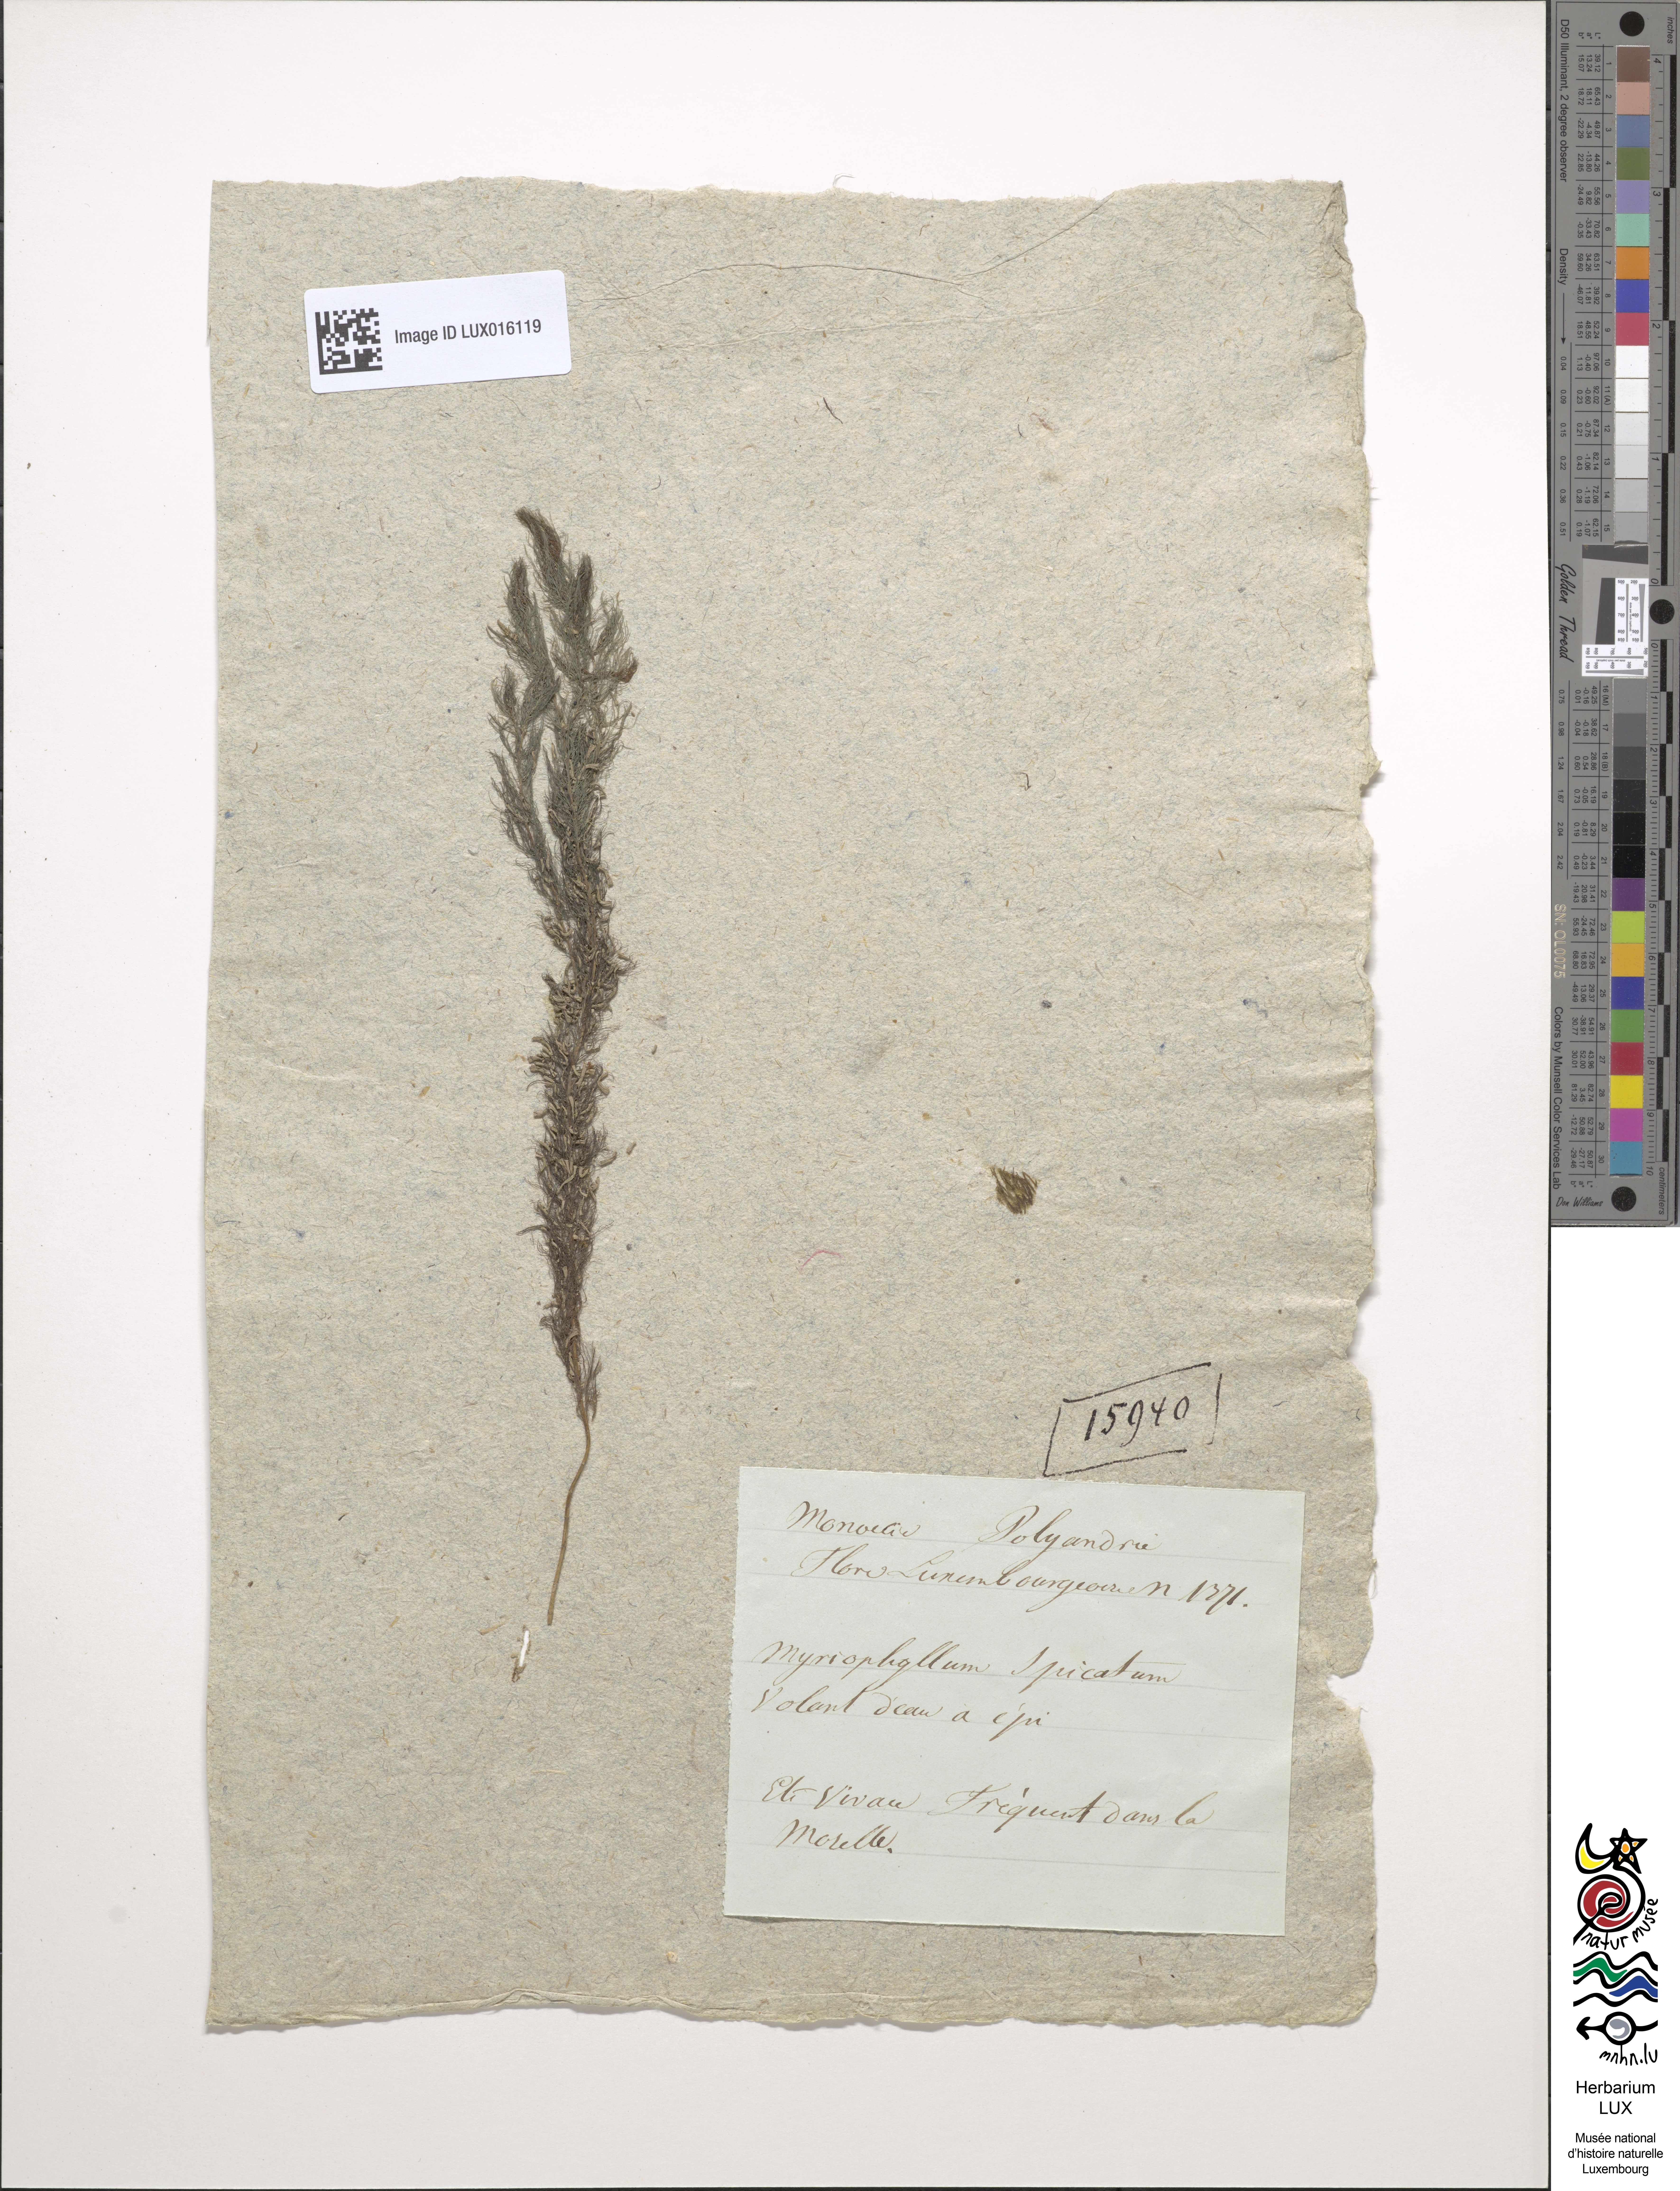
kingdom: Plantae
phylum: Tracheophyta
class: Magnoliopsida
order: Saxifragales
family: Haloragaceae
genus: Myriophyllum
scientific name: Myriophyllum spicatum
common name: Spiked water-milfoil
